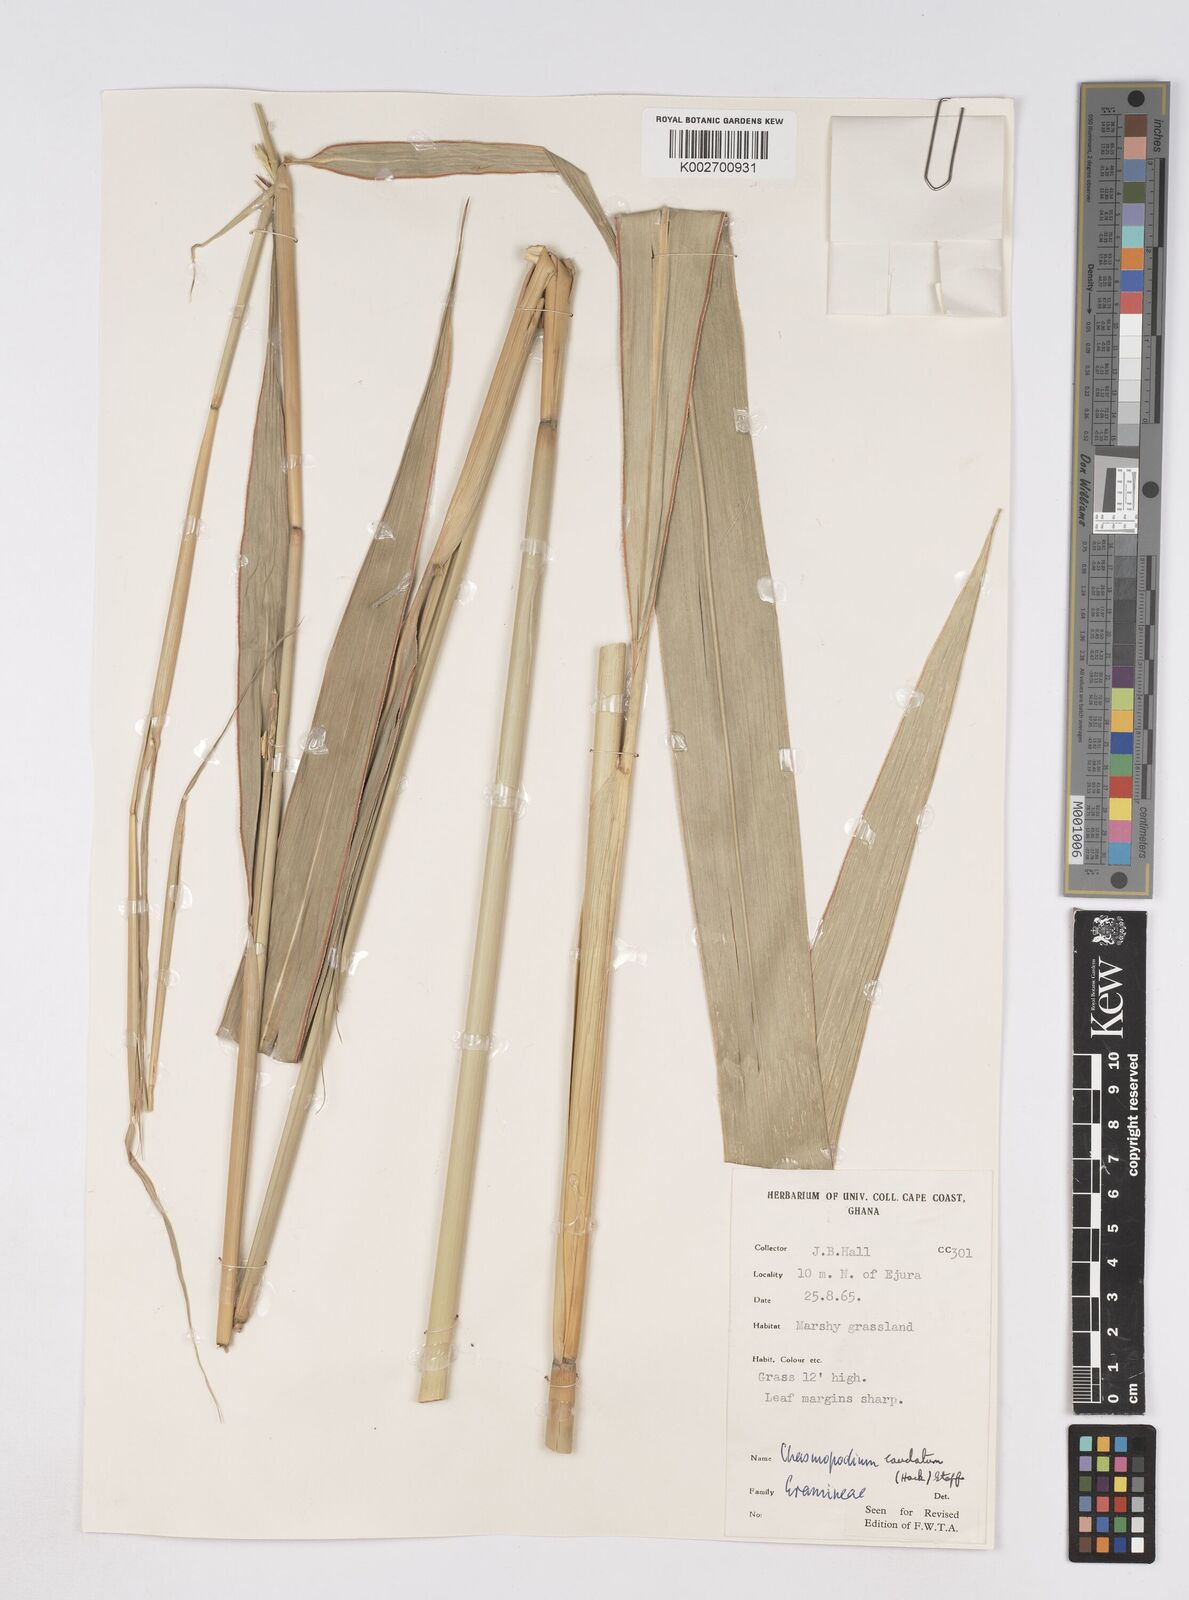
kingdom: Plantae
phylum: Tracheophyta
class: Liliopsida
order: Poales
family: Poaceae
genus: Chasmopodium
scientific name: Chasmopodium afzelii
